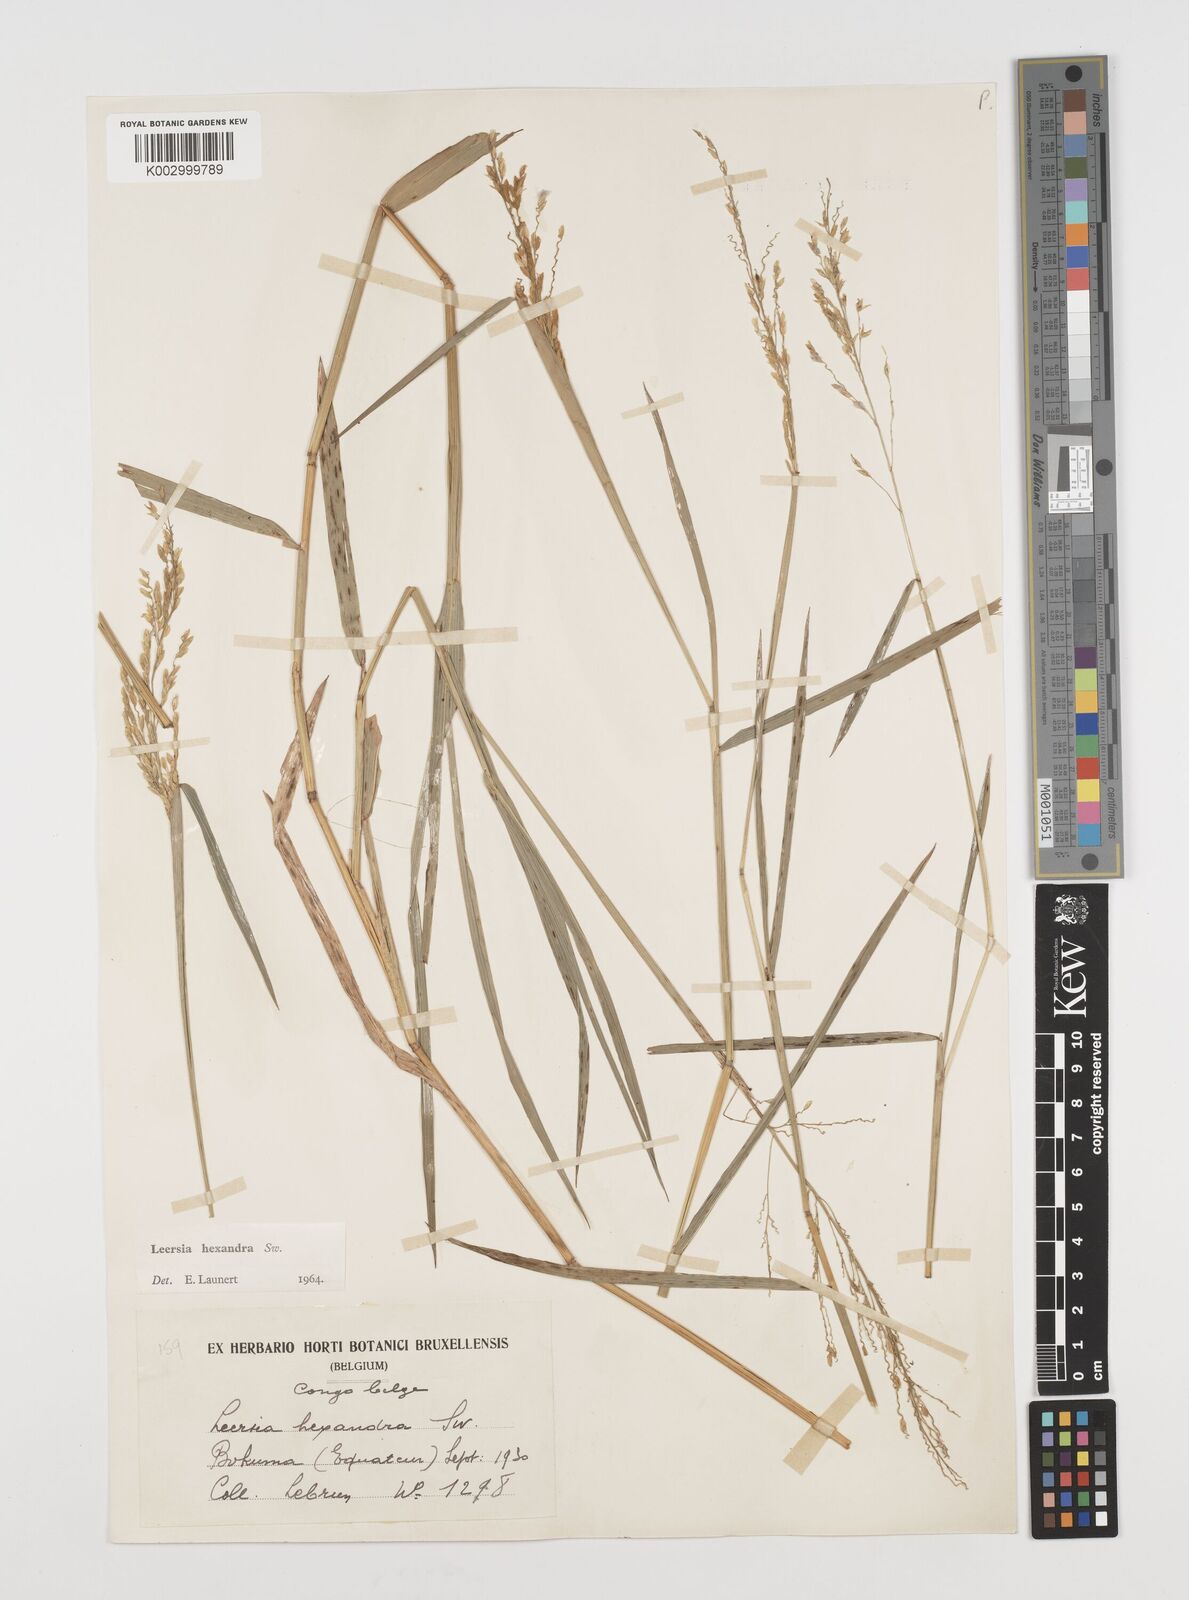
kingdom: Plantae
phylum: Tracheophyta
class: Liliopsida
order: Poales
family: Poaceae
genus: Leersia
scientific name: Leersia hexandra
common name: Southern cut grass
